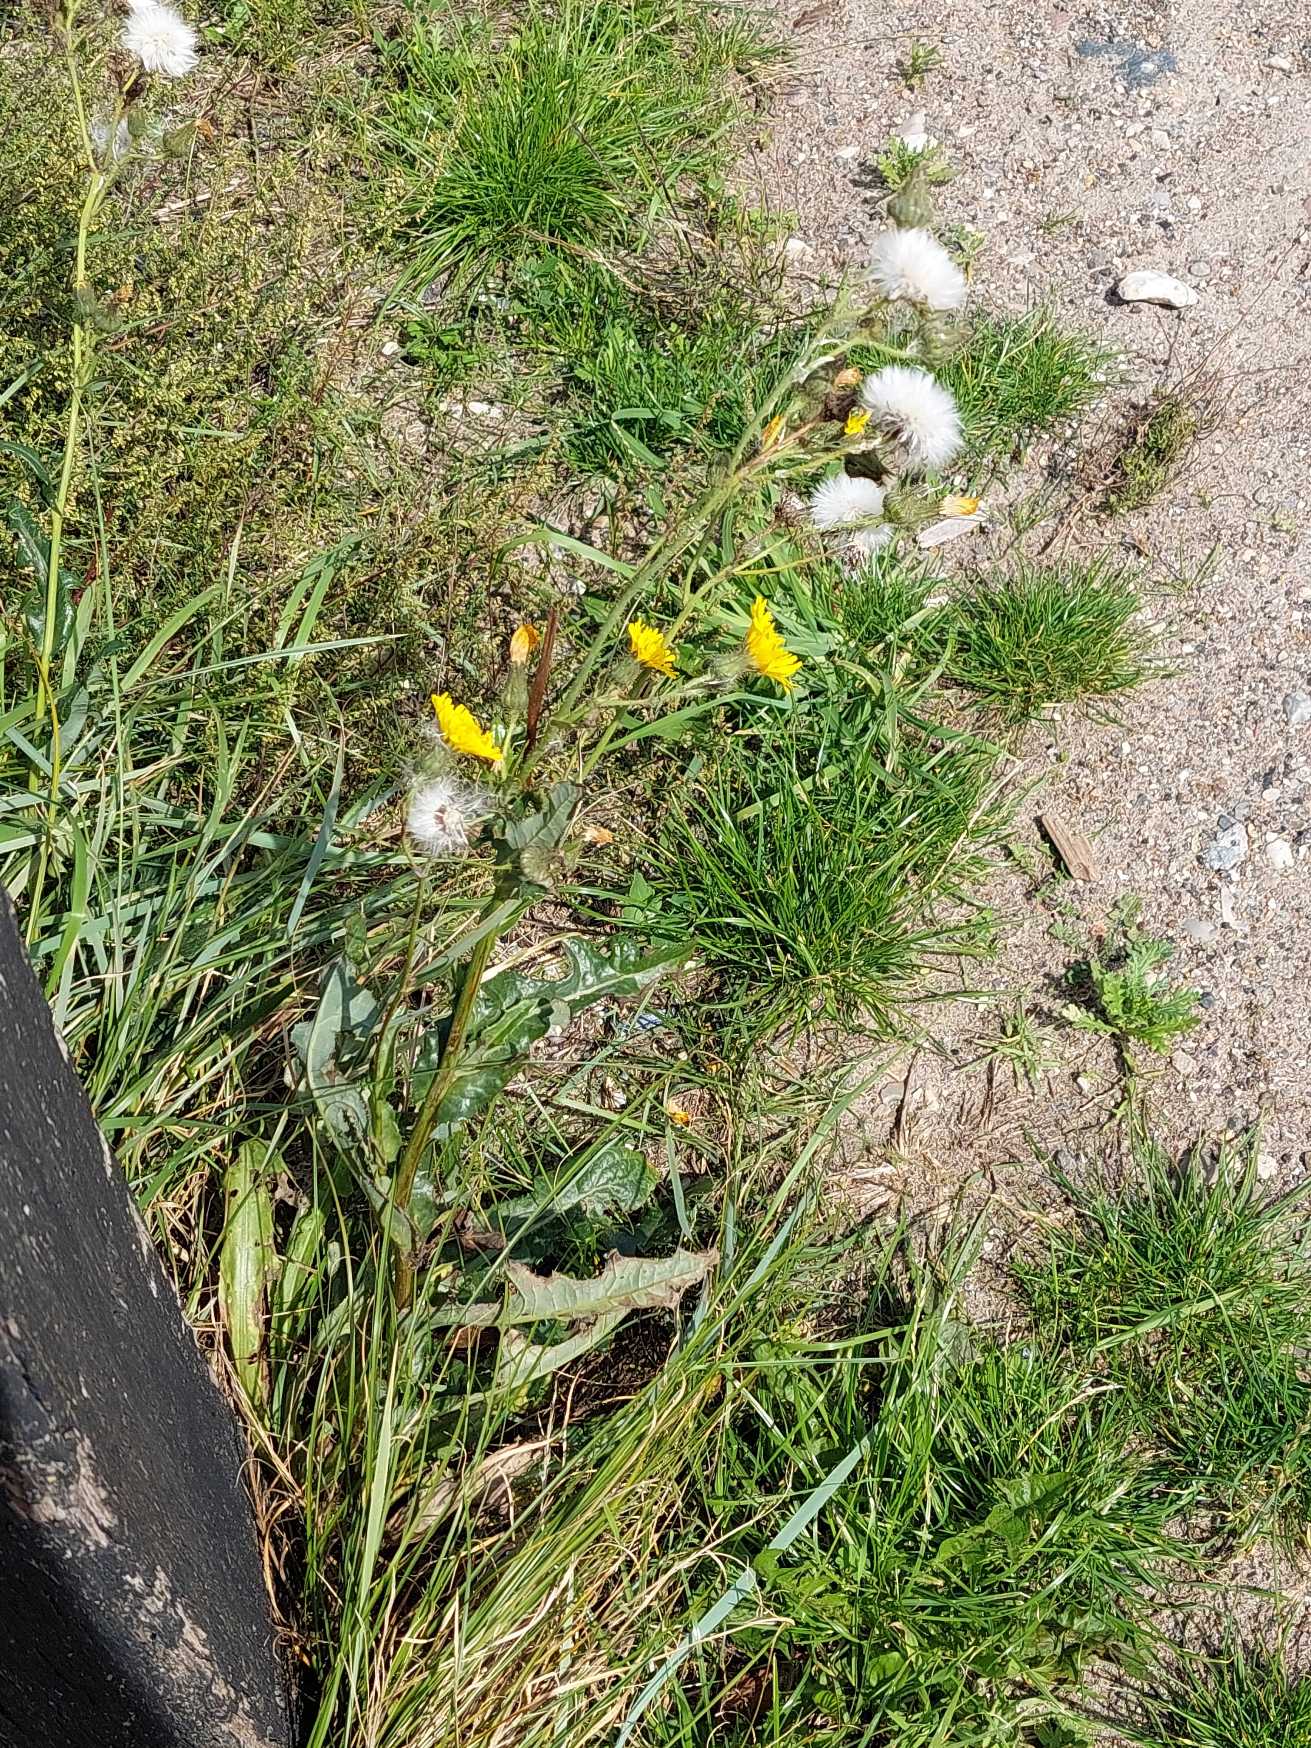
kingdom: Plantae
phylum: Tracheophyta
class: Magnoliopsida
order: Asterales
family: Asteraceae
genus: Sonchus
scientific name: Sonchus arvensis
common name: Ager-svinemælk
